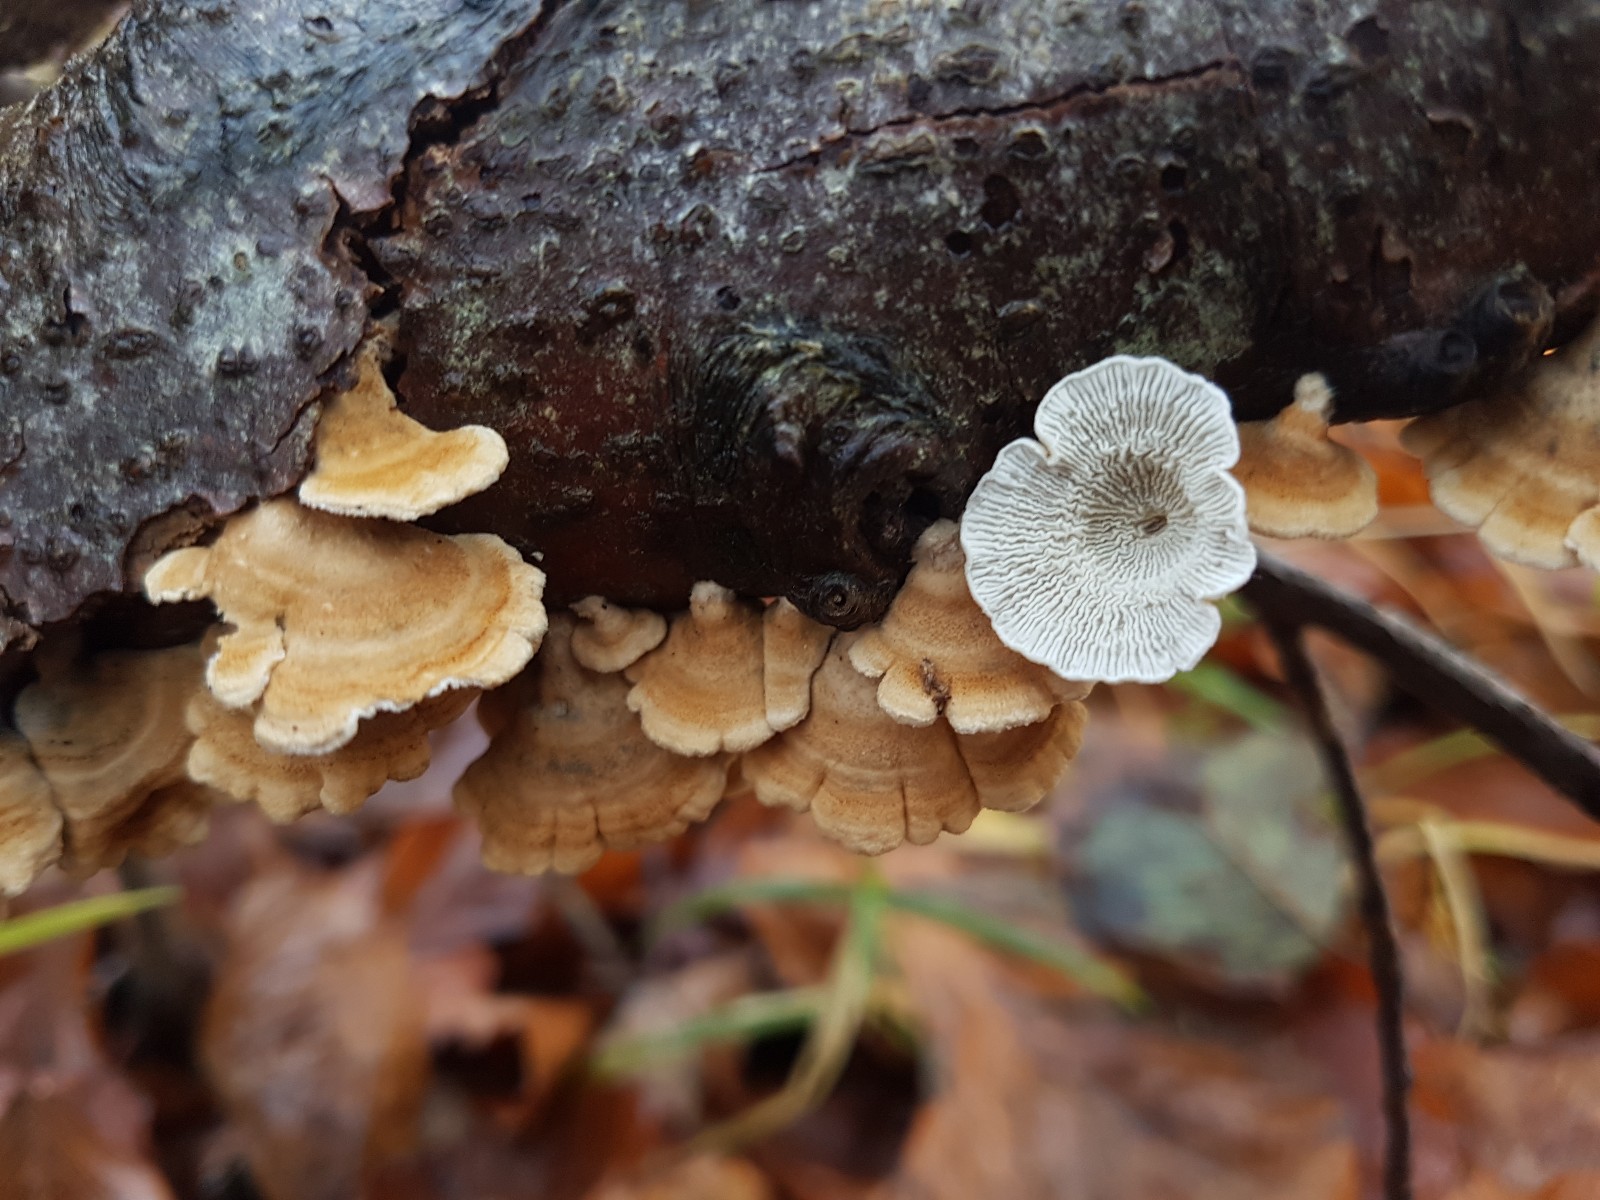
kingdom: Fungi
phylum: Basidiomycota
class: Agaricomycetes
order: Amylocorticiales
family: Amylocorticiaceae
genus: Plicaturopsis
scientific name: Plicaturopsis crispa
